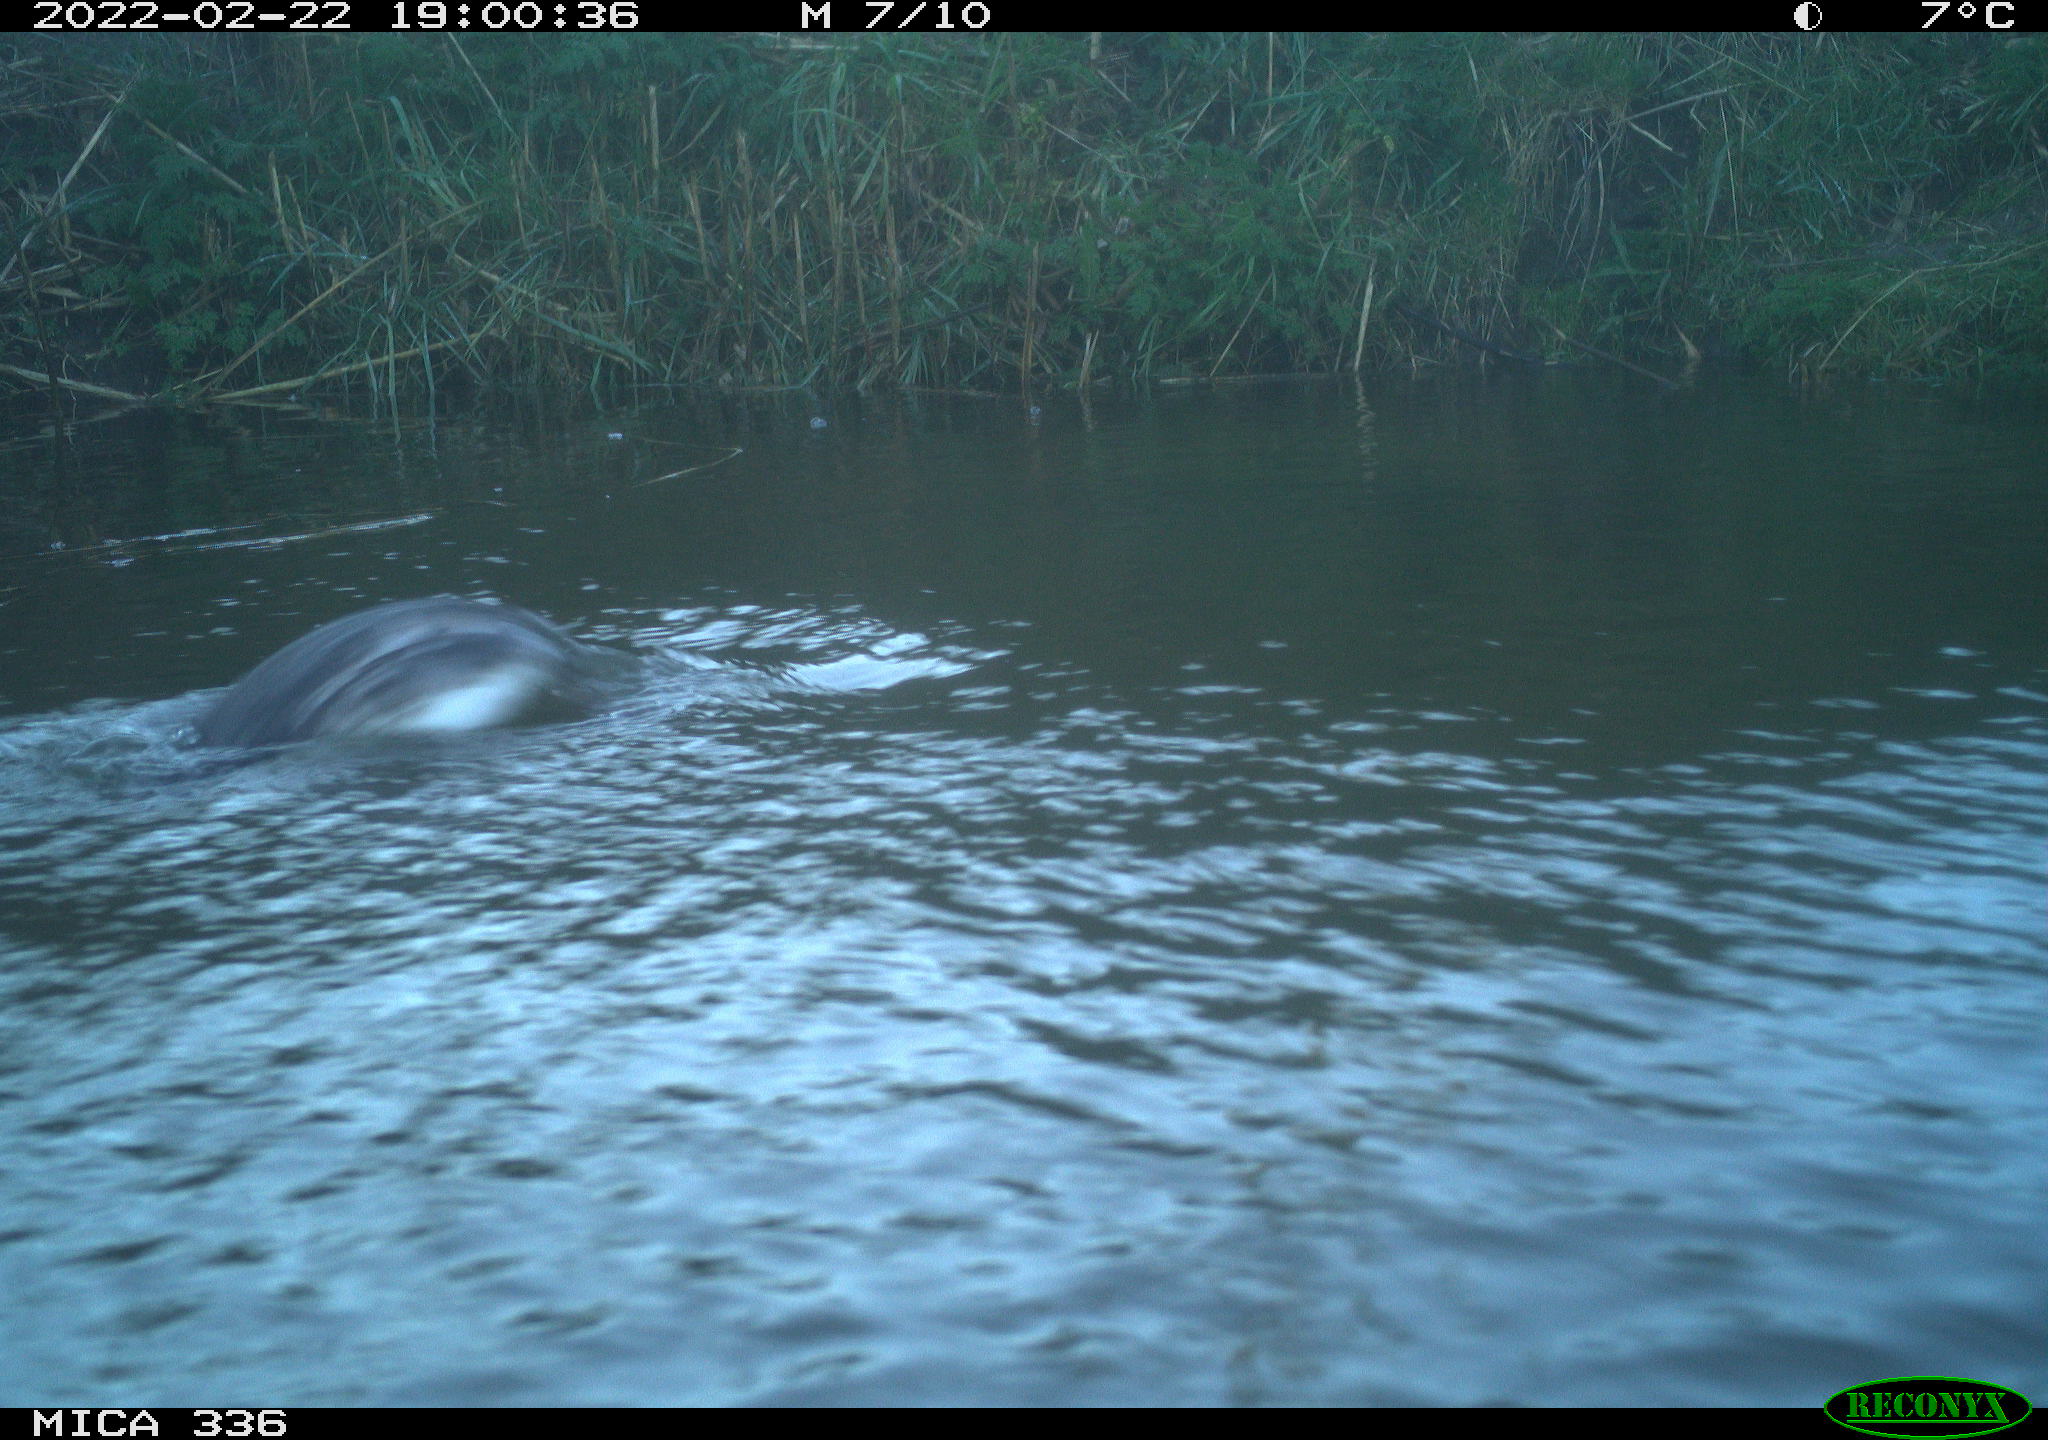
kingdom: Animalia
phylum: Chordata
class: Aves
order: Podicipediformes
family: Podicipedidae
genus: Podiceps
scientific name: Podiceps cristatus
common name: Great crested grebe
